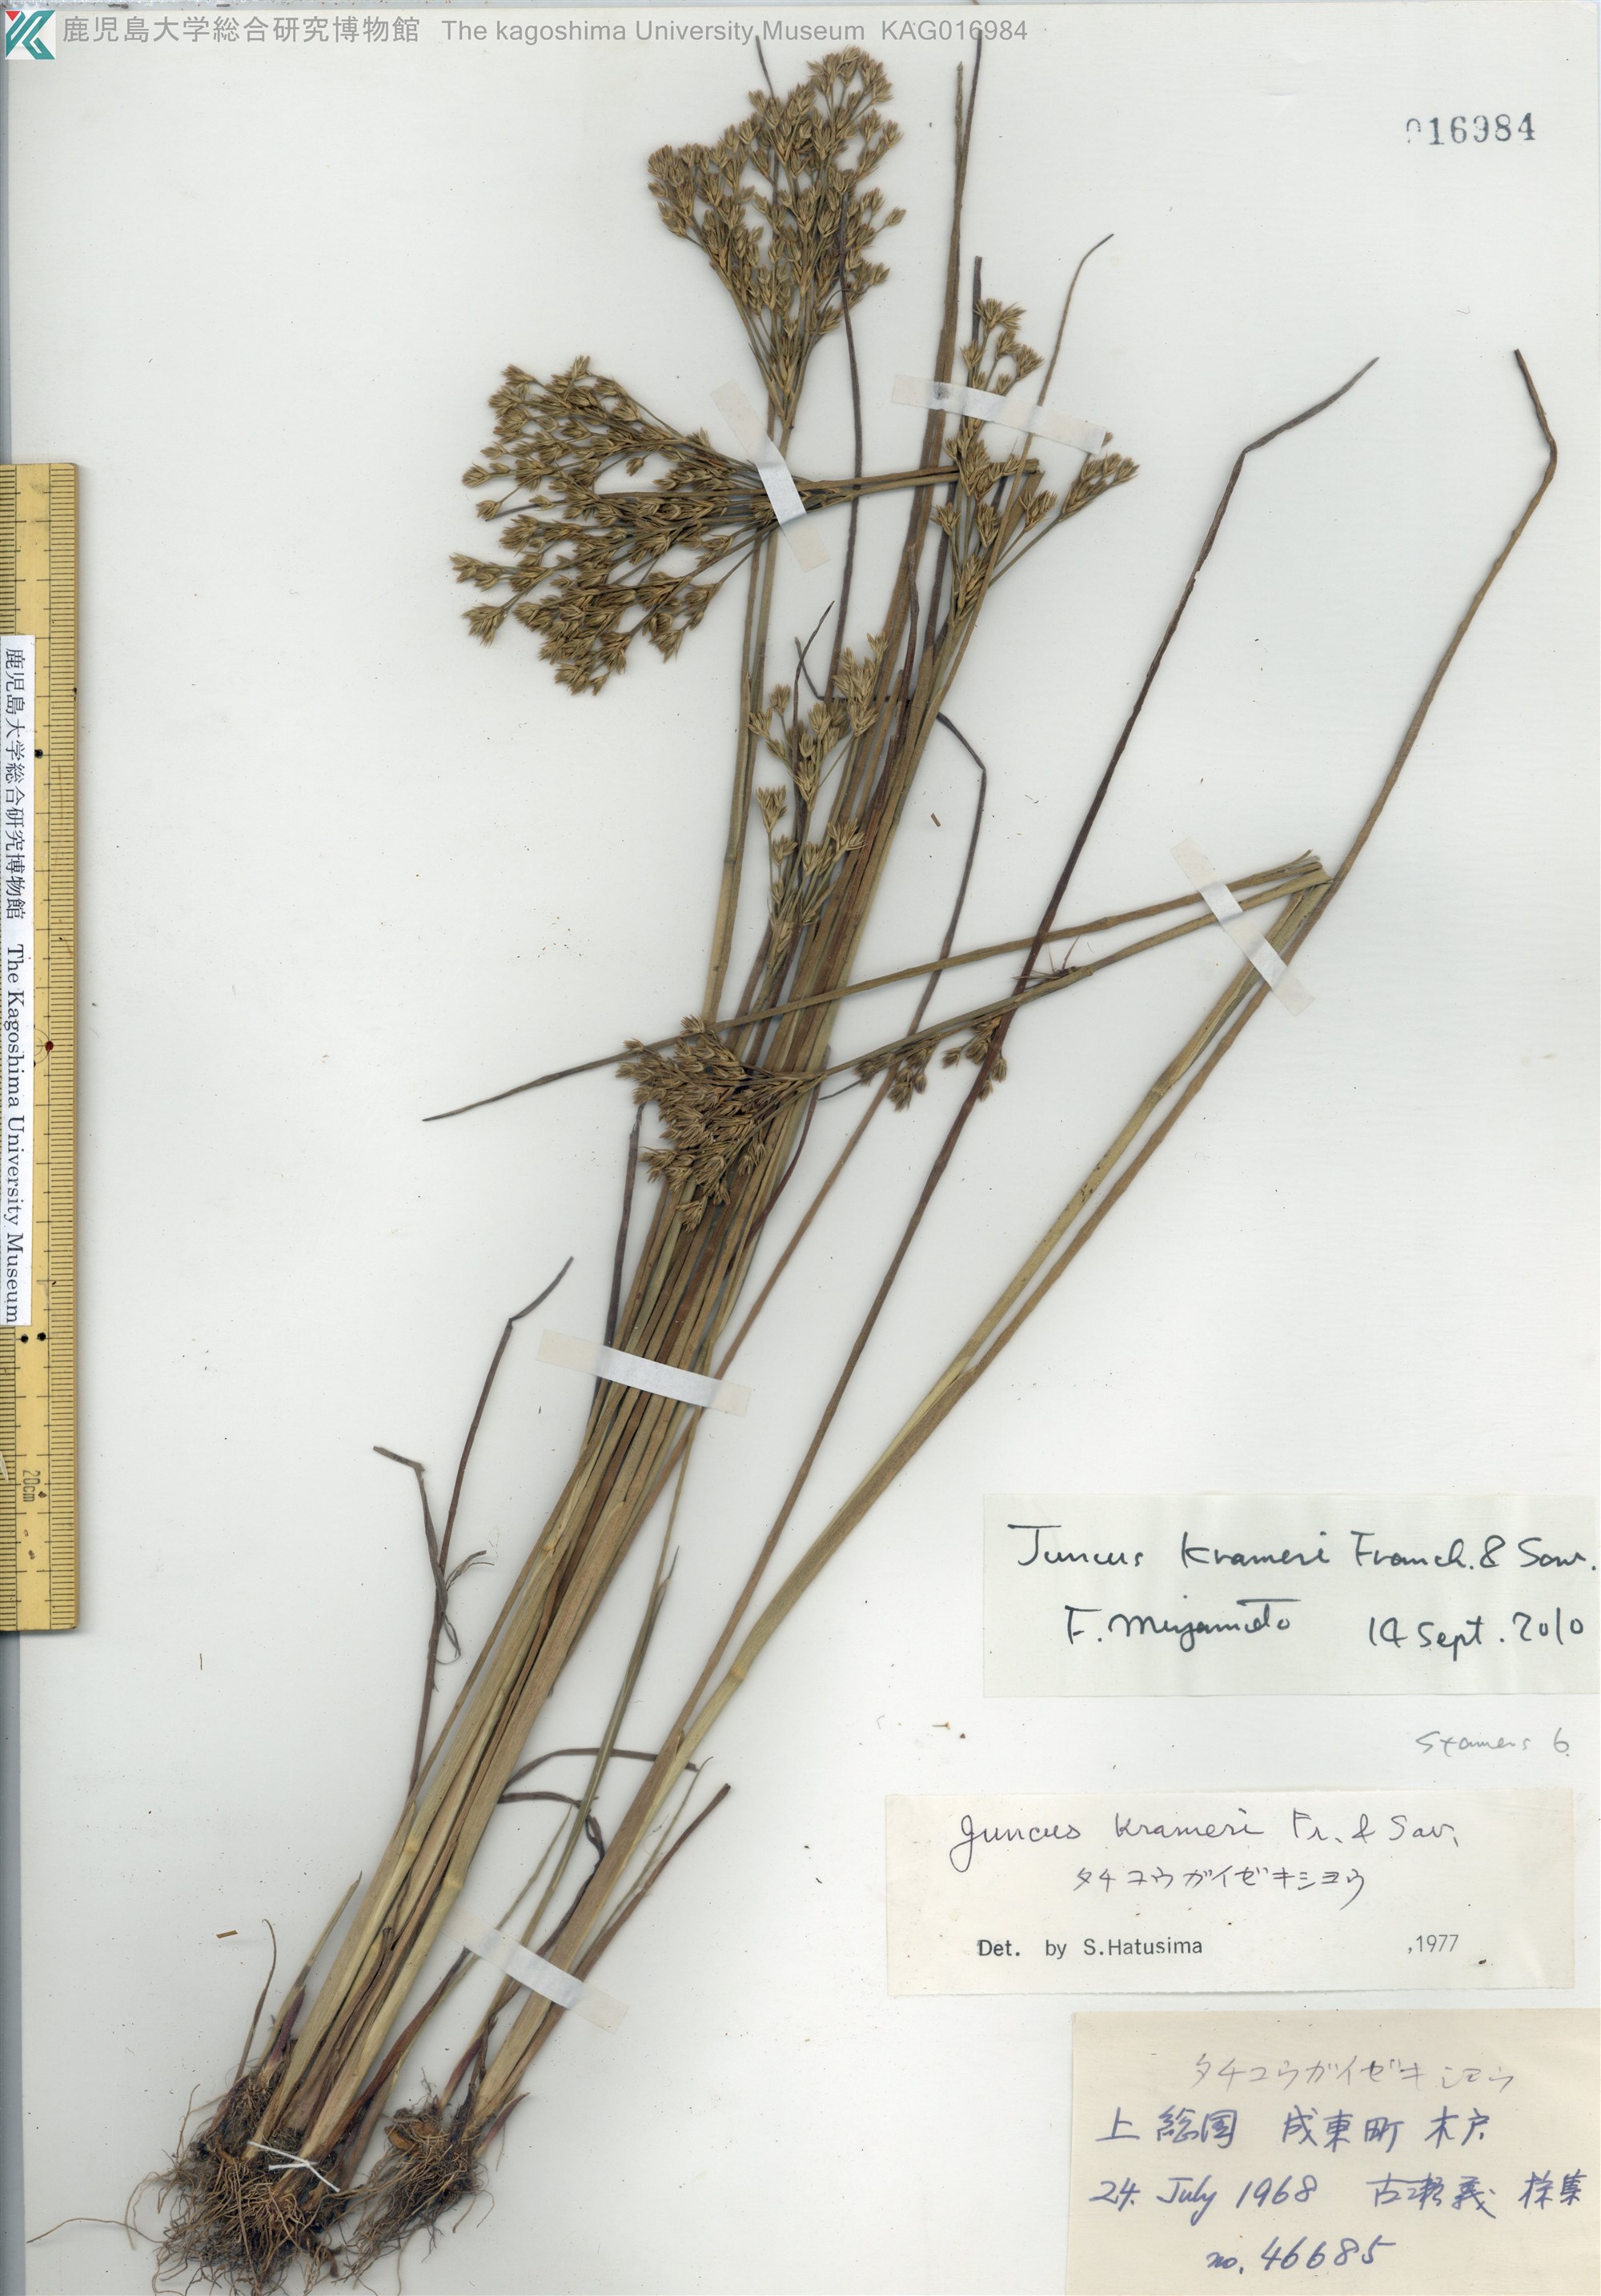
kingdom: Plantae
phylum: Tracheophyta
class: Liliopsida
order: Poales
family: Juncaceae
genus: Juncus
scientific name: Juncus krameri
